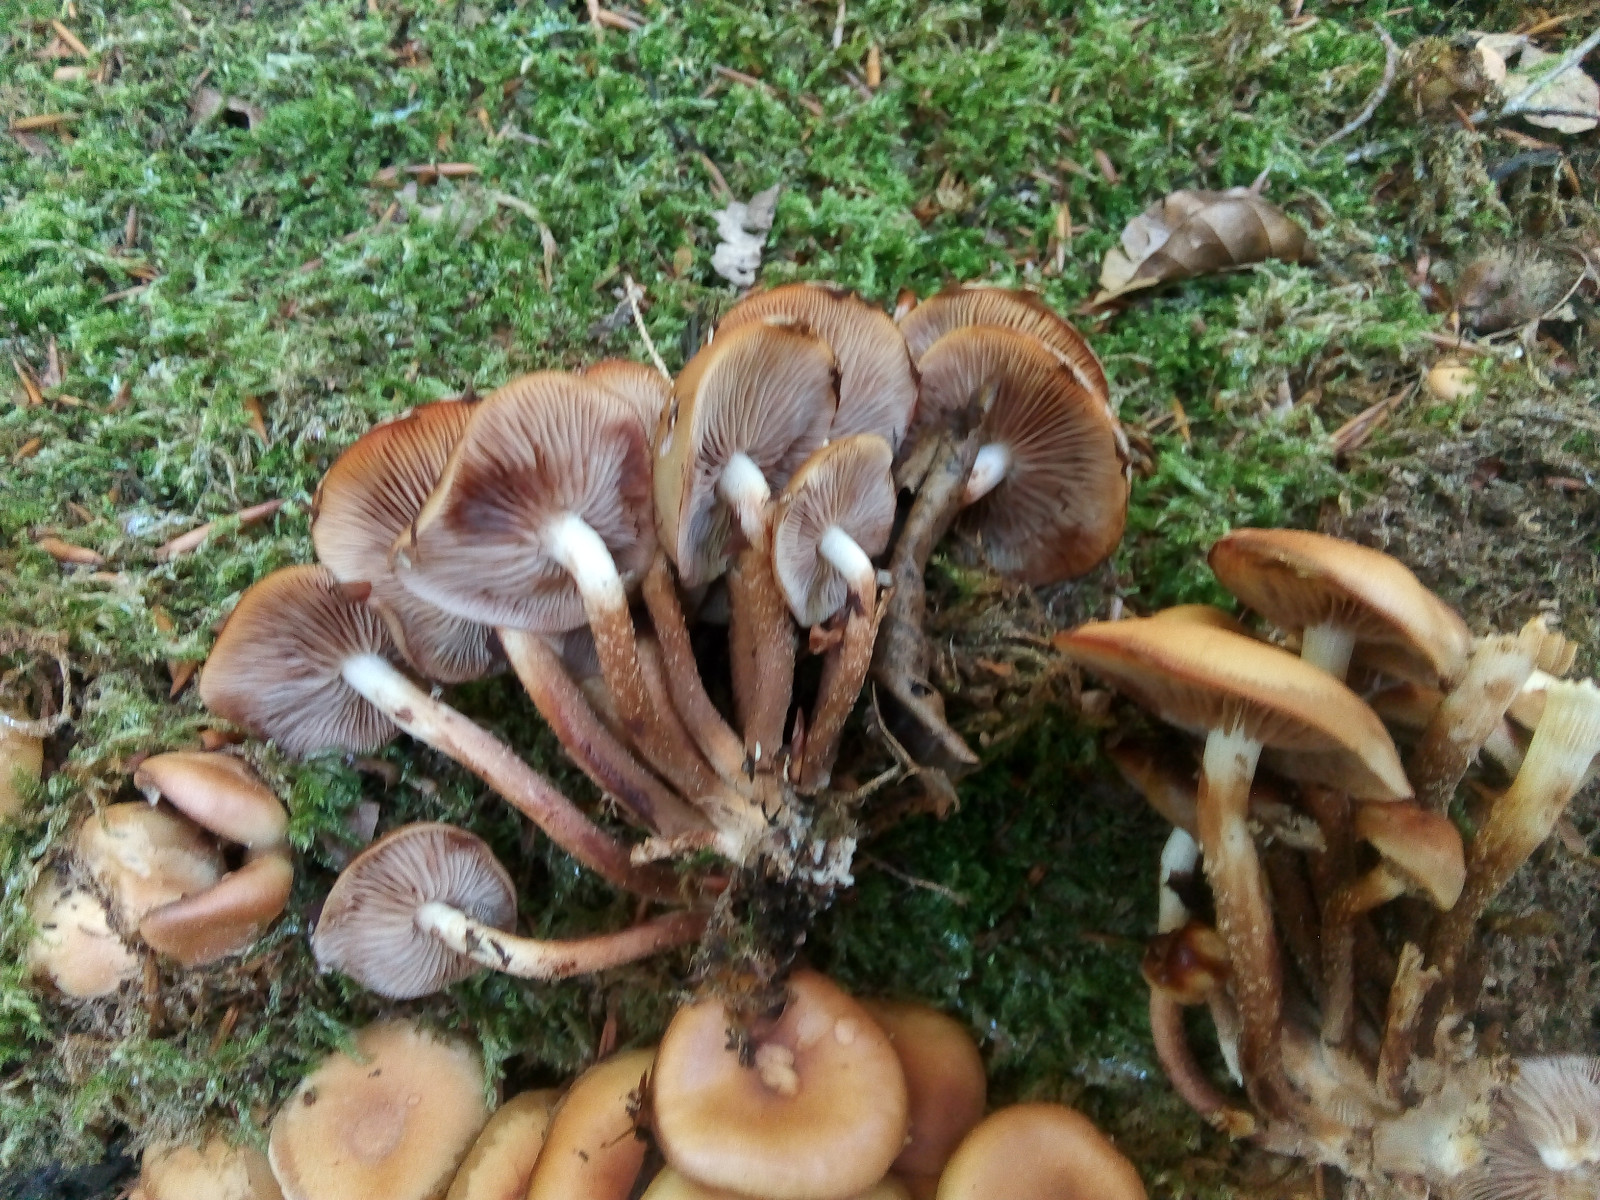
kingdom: Fungi
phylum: Basidiomycota
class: Agaricomycetes
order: Agaricales
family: Strophariaceae
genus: Kuehneromyces
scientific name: Kuehneromyces mutabilis
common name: foranderlig skælhat
